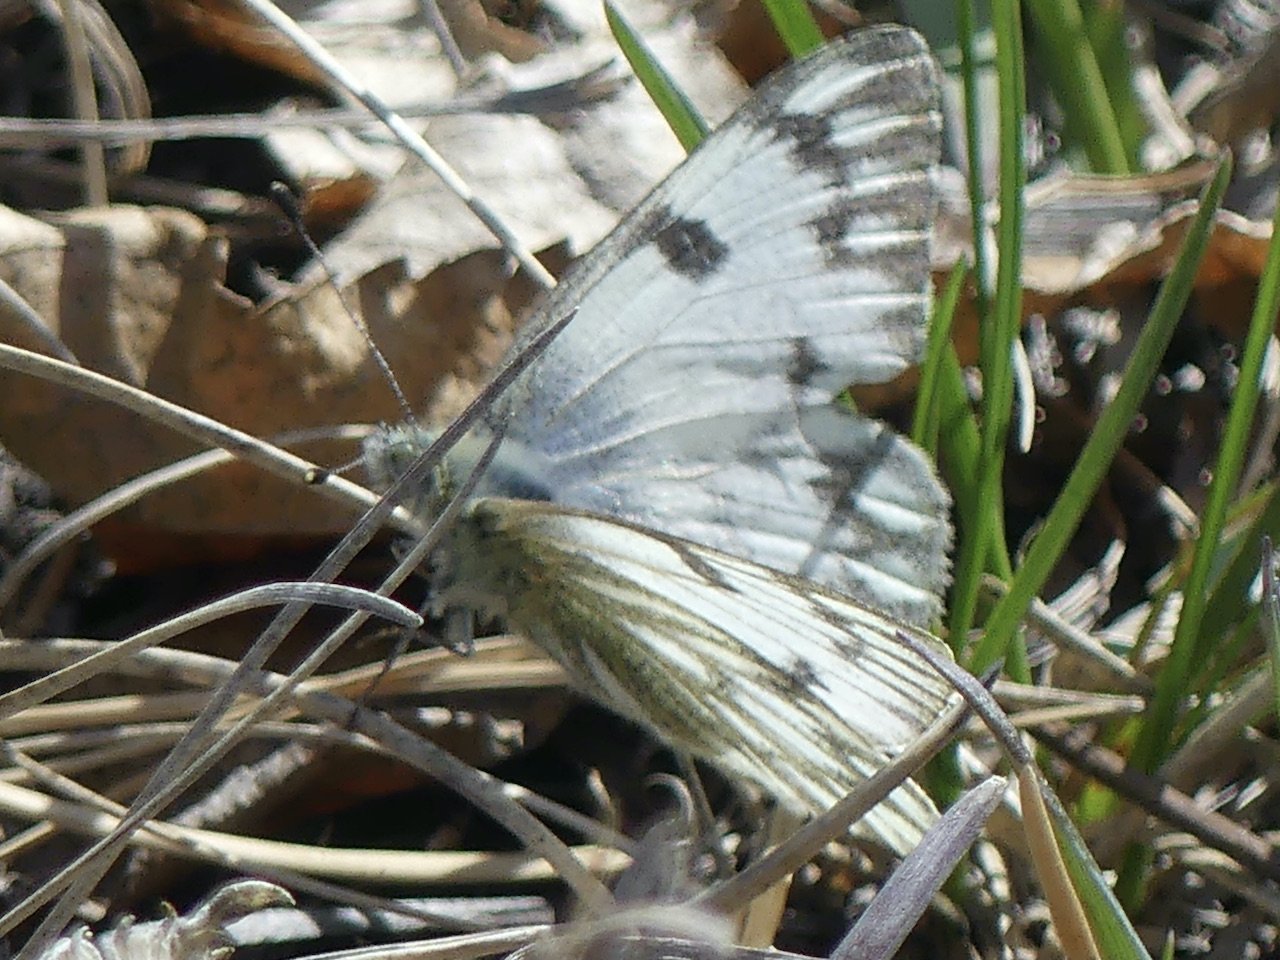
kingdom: Animalia
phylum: Arthropoda
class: Insecta
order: Lepidoptera
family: Pieridae
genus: Pontia
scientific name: Pontia occidentalis
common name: Western White
